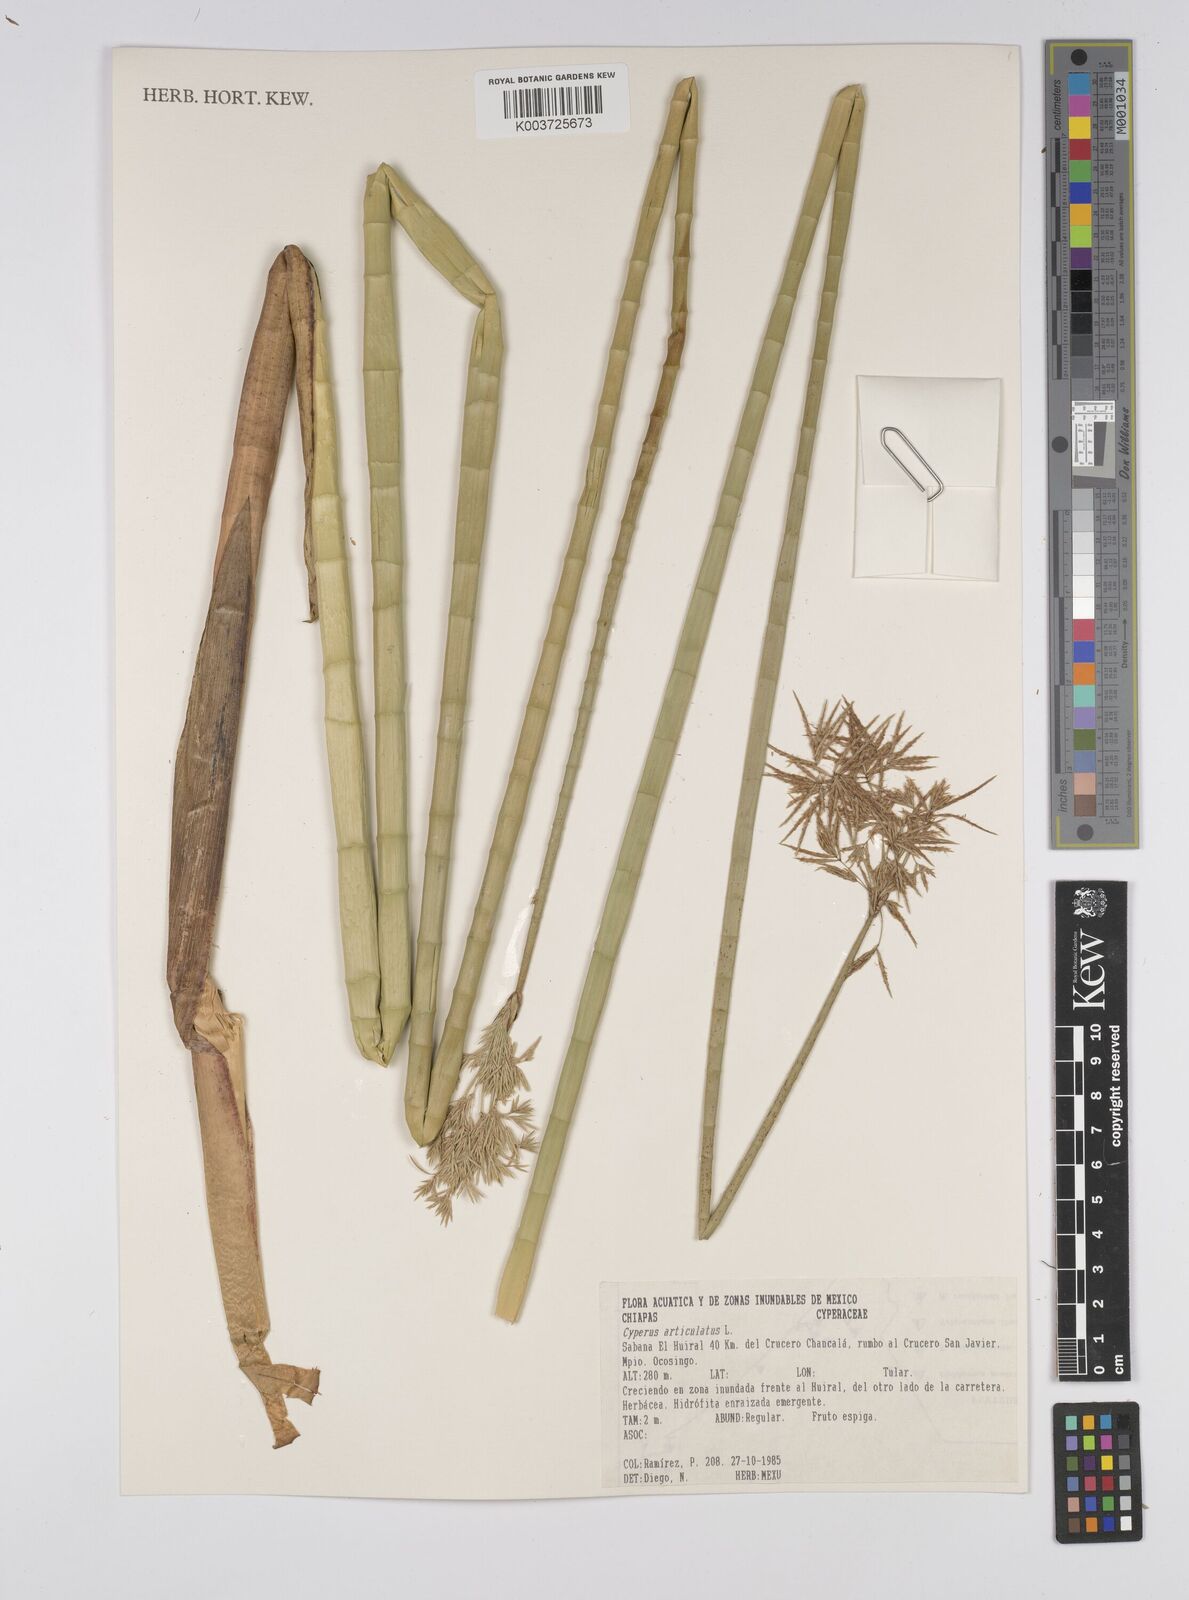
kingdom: Plantae
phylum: Tracheophyta
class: Liliopsida
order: Poales
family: Cyperaceae
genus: Cyperus
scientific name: Cyperus articulatus
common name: Jointed flatsedge
